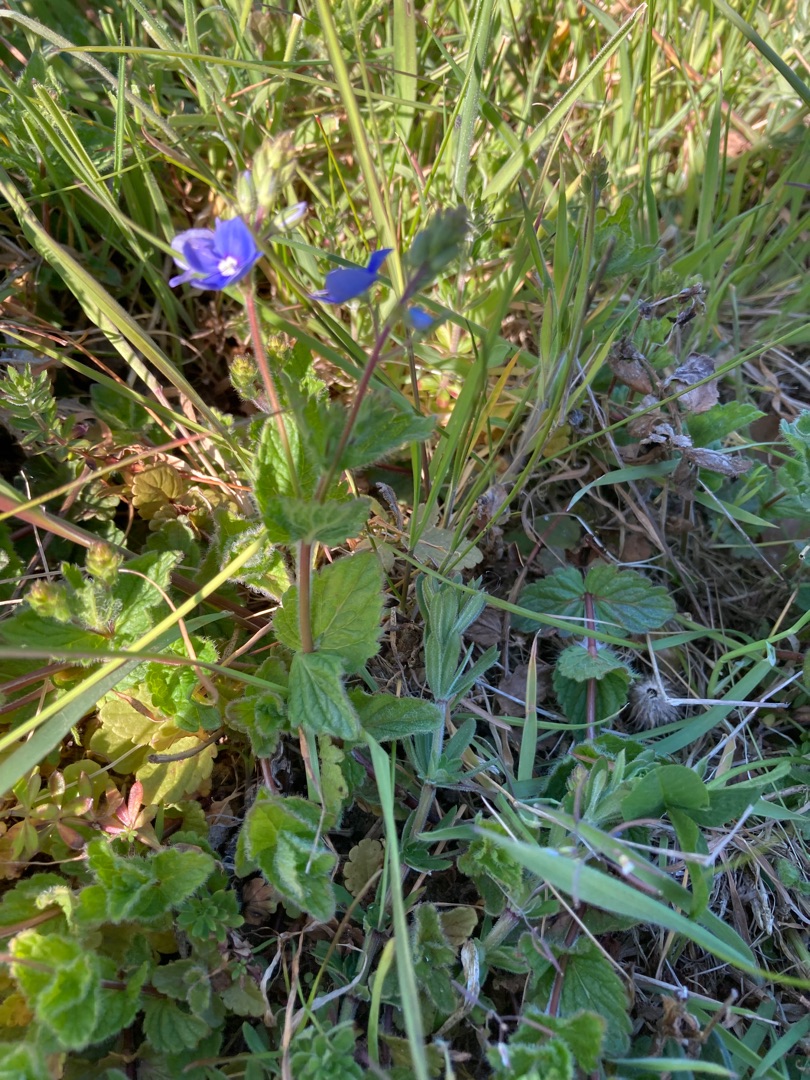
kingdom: Plantae
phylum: Tracheophyta
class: Magnoliopsida
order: Lamiales
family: Plantaginaceae
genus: Veronica
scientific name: Veronica chamaedrys
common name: Tveskægget ærenpris
